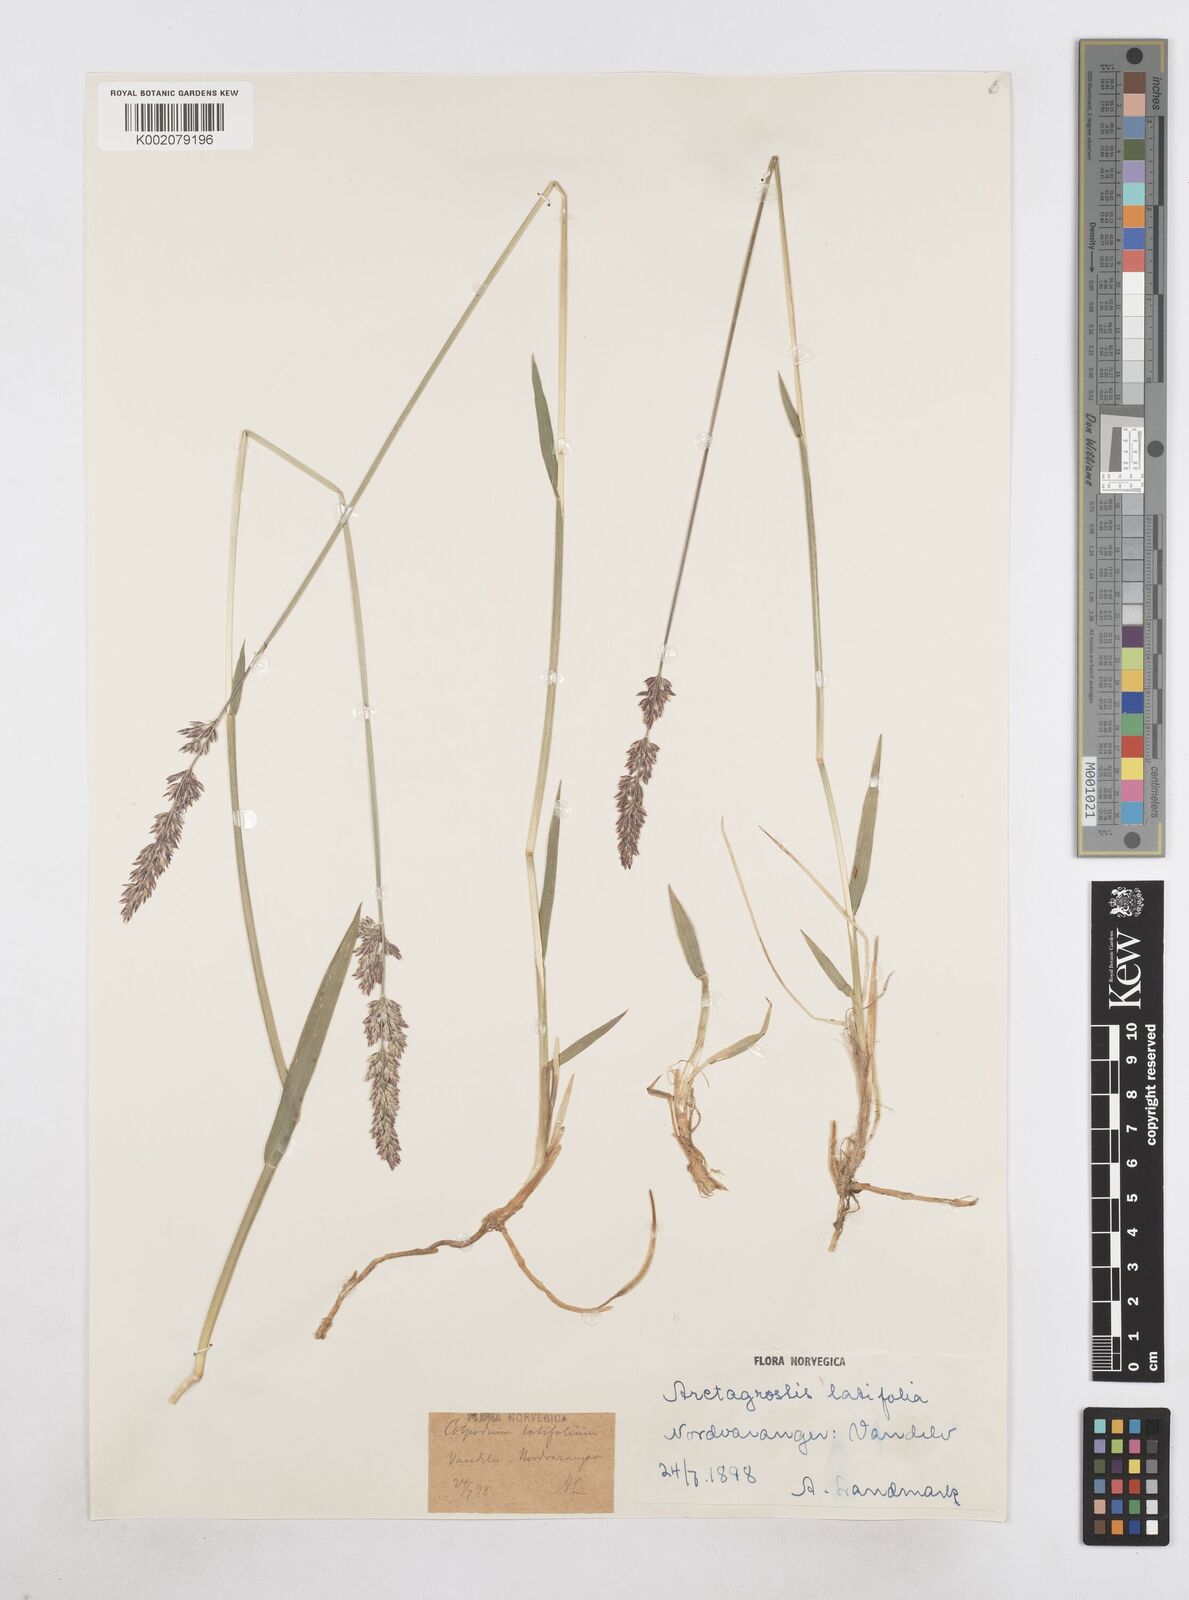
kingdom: Plantae
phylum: Tracheophyta
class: Liliopsida
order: Poales
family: Poaceae
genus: Arctagrostis
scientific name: Arctagrostis latifolia
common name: Arctic grass
